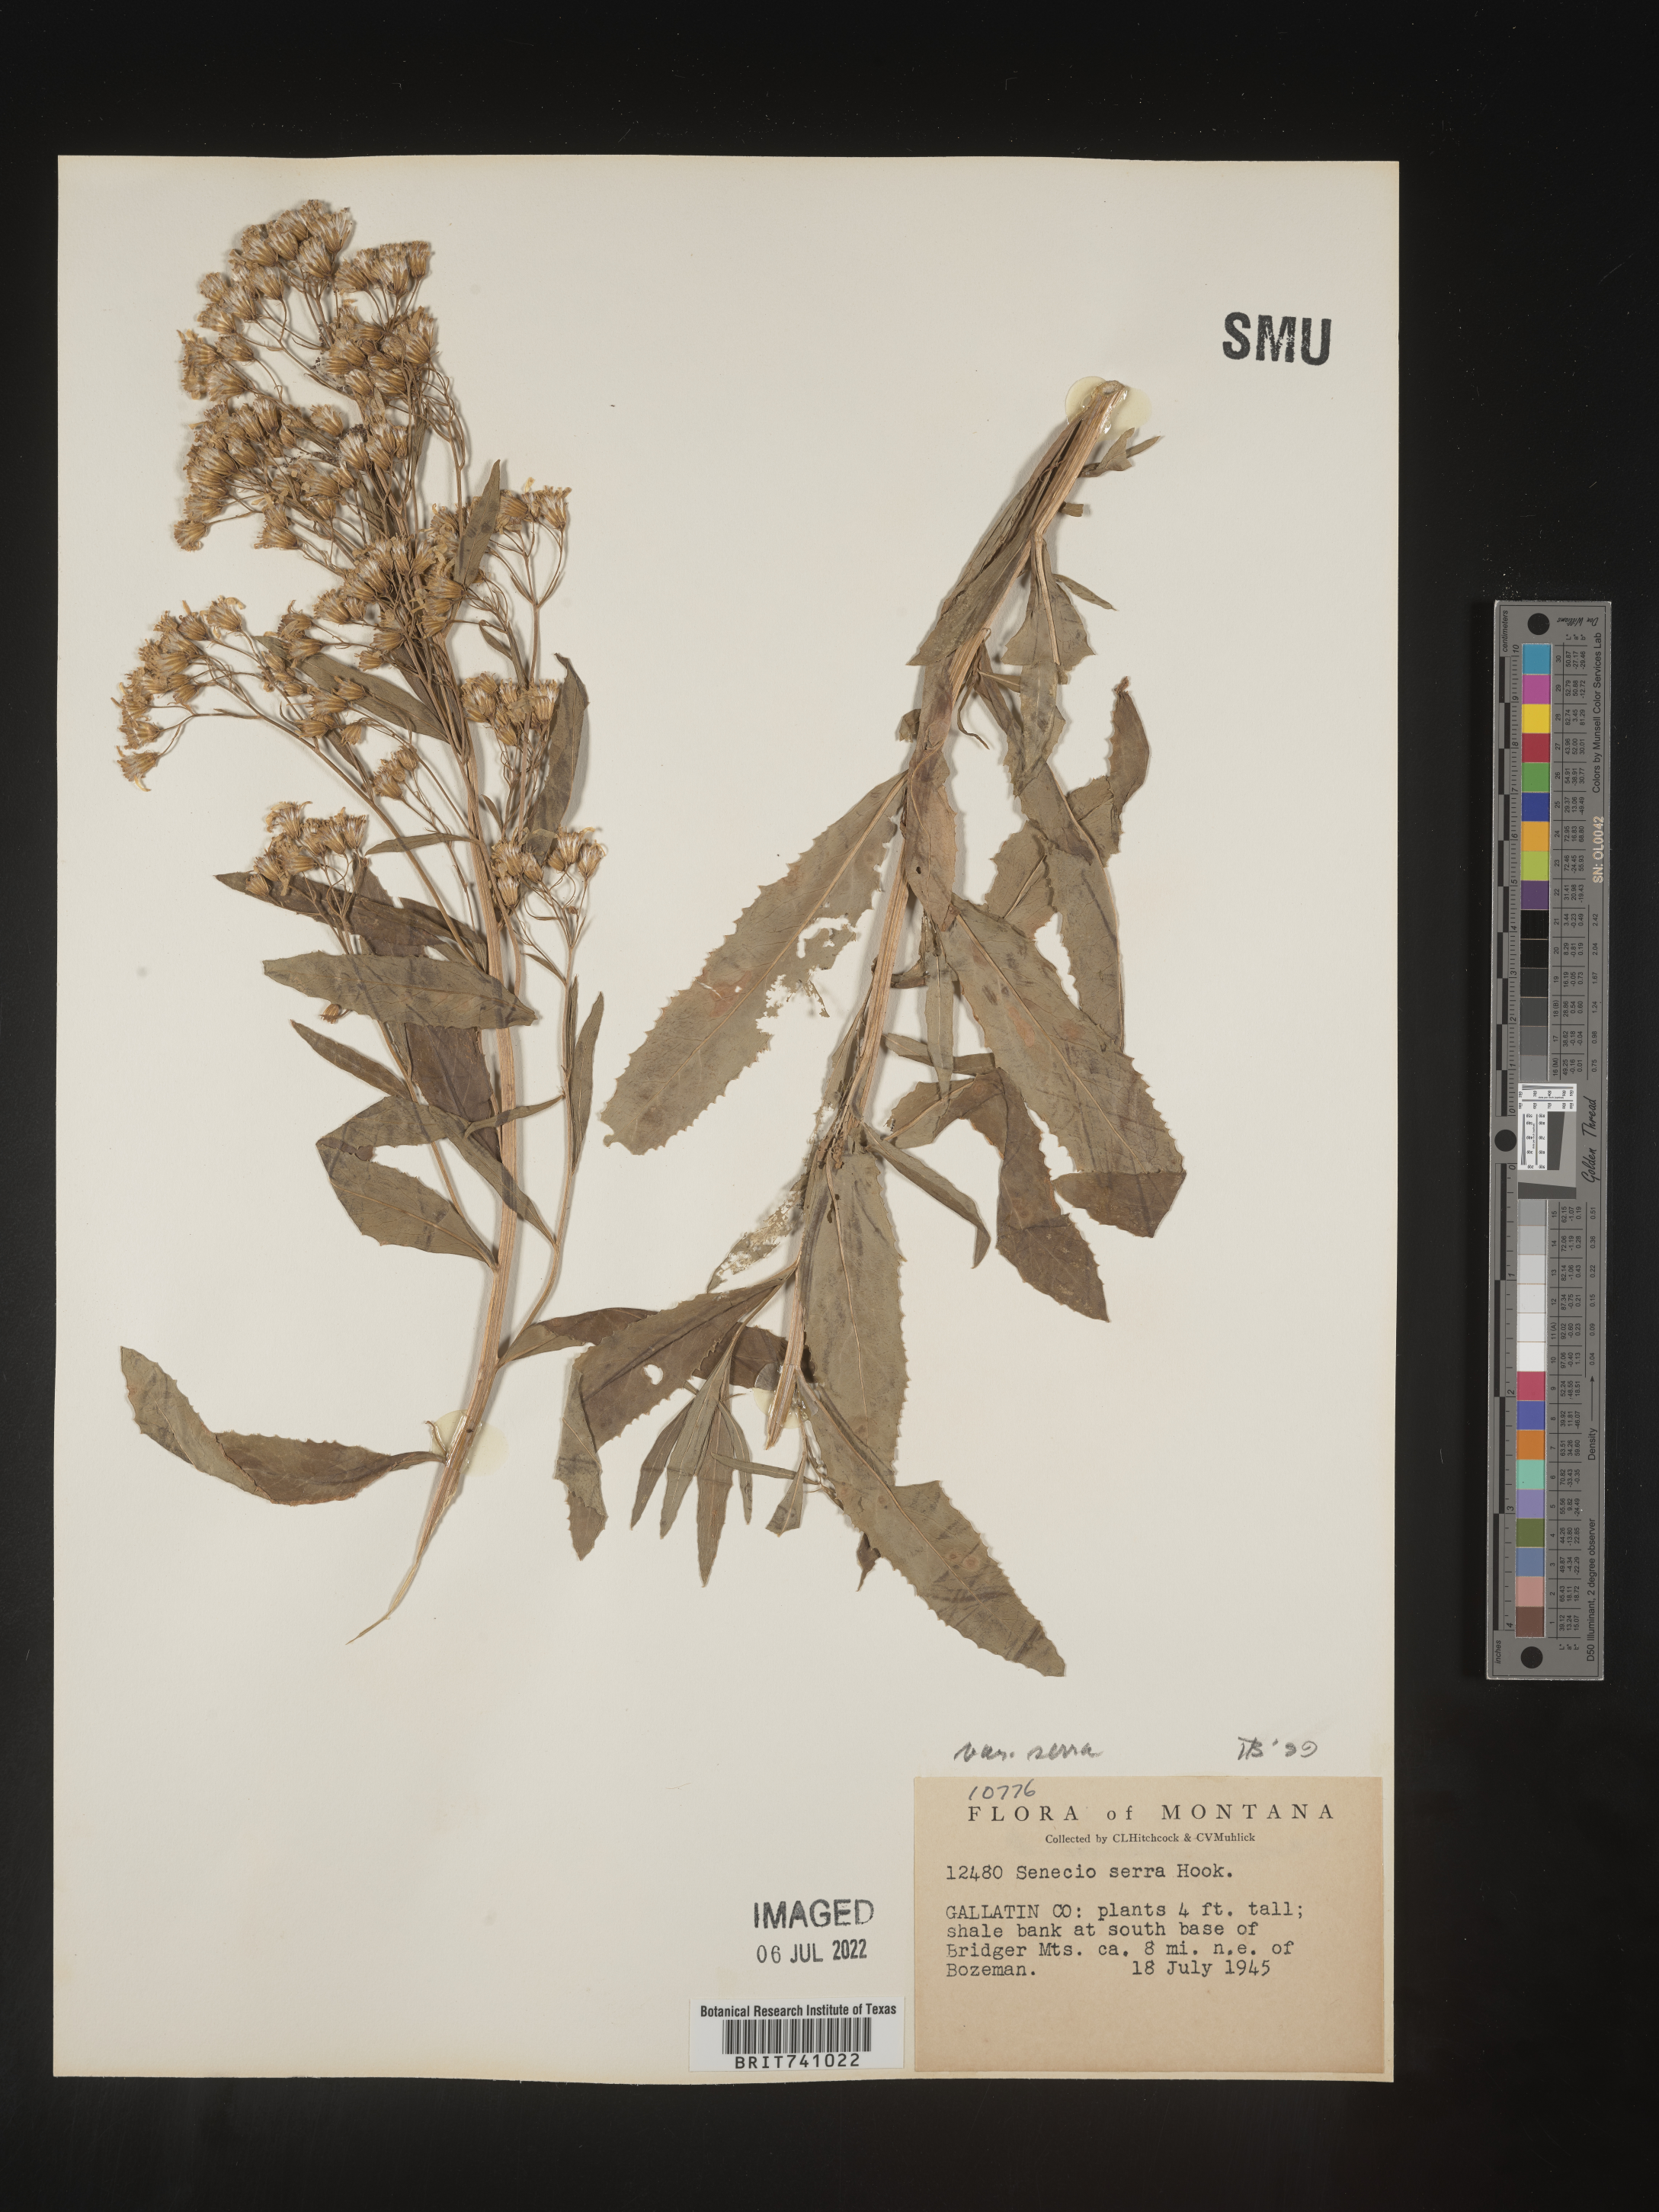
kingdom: Plantae
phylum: Tracheophyta
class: Magnoliopsida
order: Asterales
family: Asteraceae
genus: Senecio
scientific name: Senecio serra
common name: Tall ragwort
